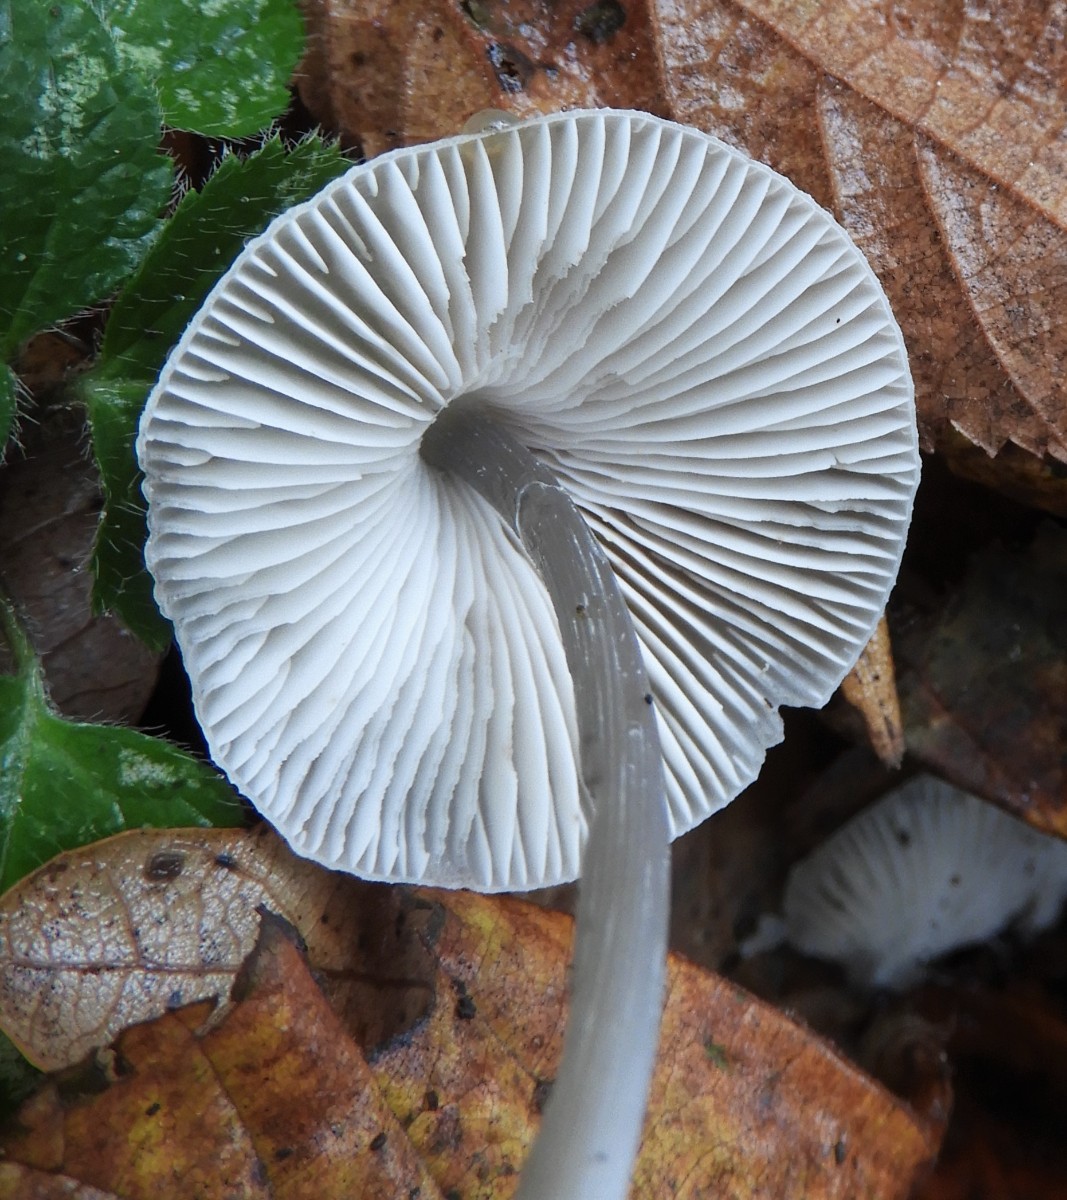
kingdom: Fungi
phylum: Basidiomycota
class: Agaricomycetes
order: Agaricales
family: Mycenaceae
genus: Mycena
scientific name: Mycena polygramma
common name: mangestribet huesvamp
